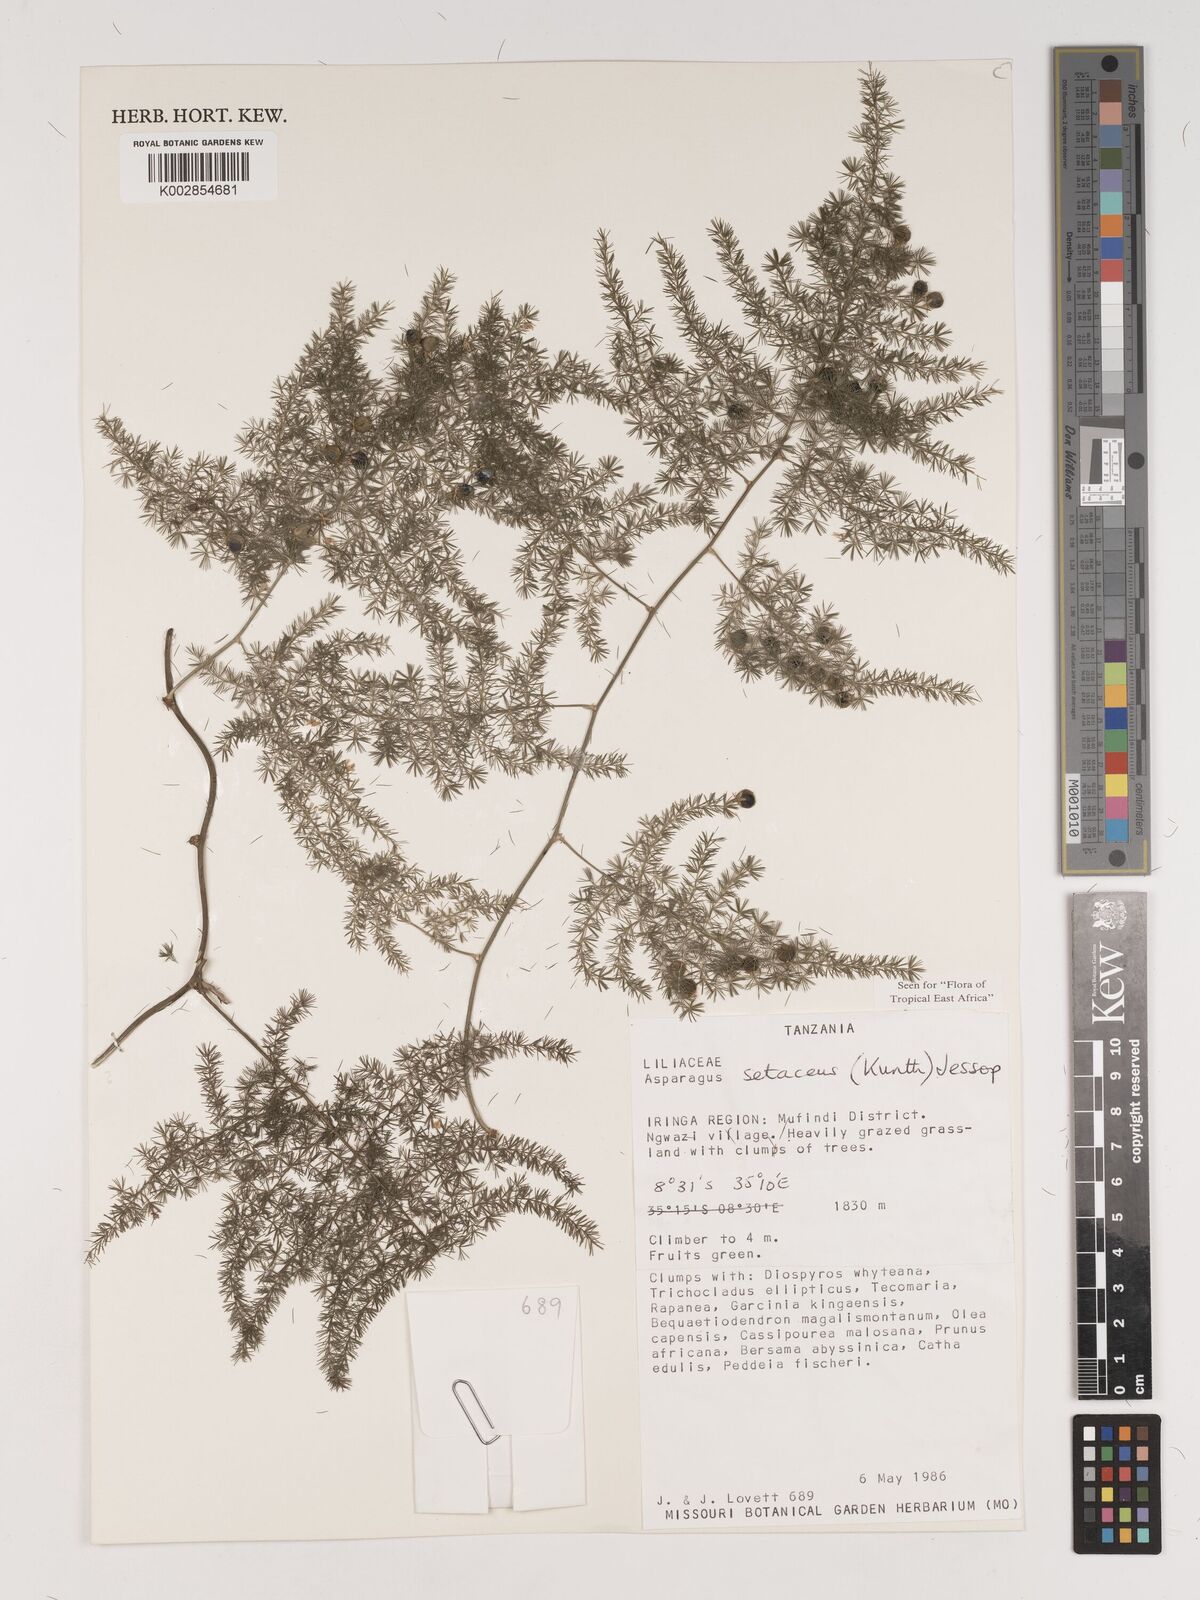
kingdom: Plantae
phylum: Tracheophyta
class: Liliopsida
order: Asparagales
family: Asparagaceae
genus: Asparagus
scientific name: Asparagus setaceus
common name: Common asparagus fern
